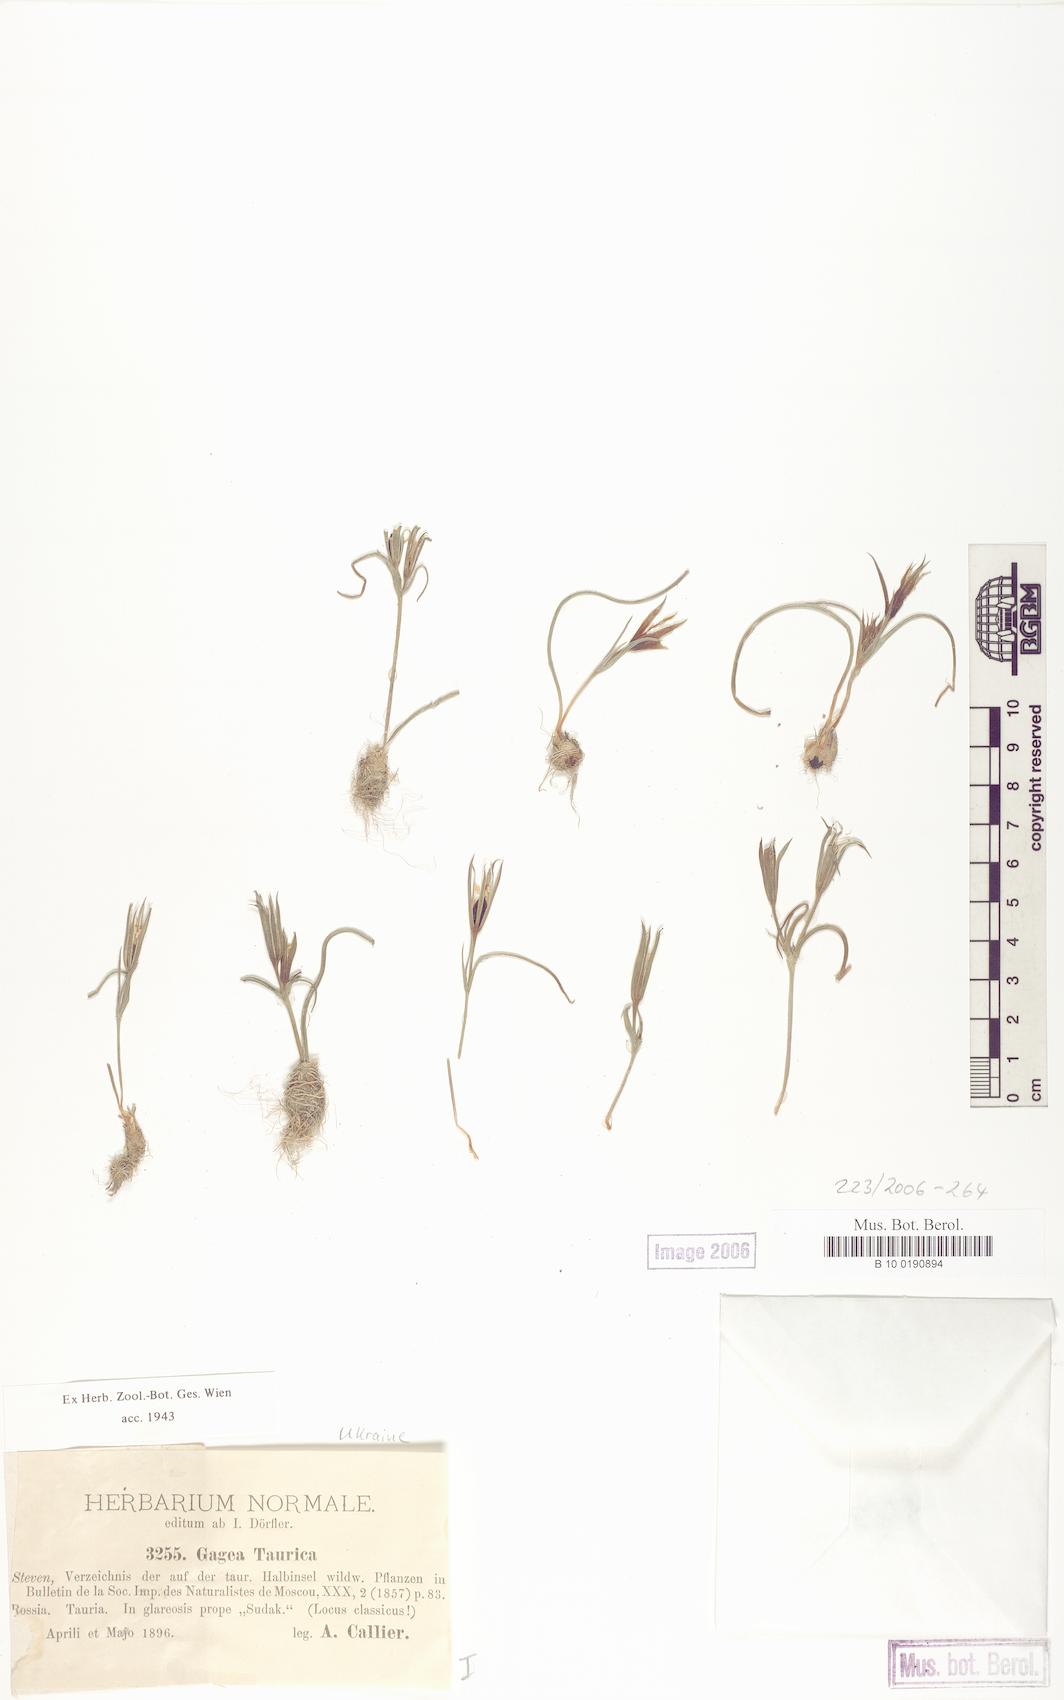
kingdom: Plantae
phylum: Tracheophyta
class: Liliopsida
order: Liliales
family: Liliaceae
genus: Gagea
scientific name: Gagea taurica
